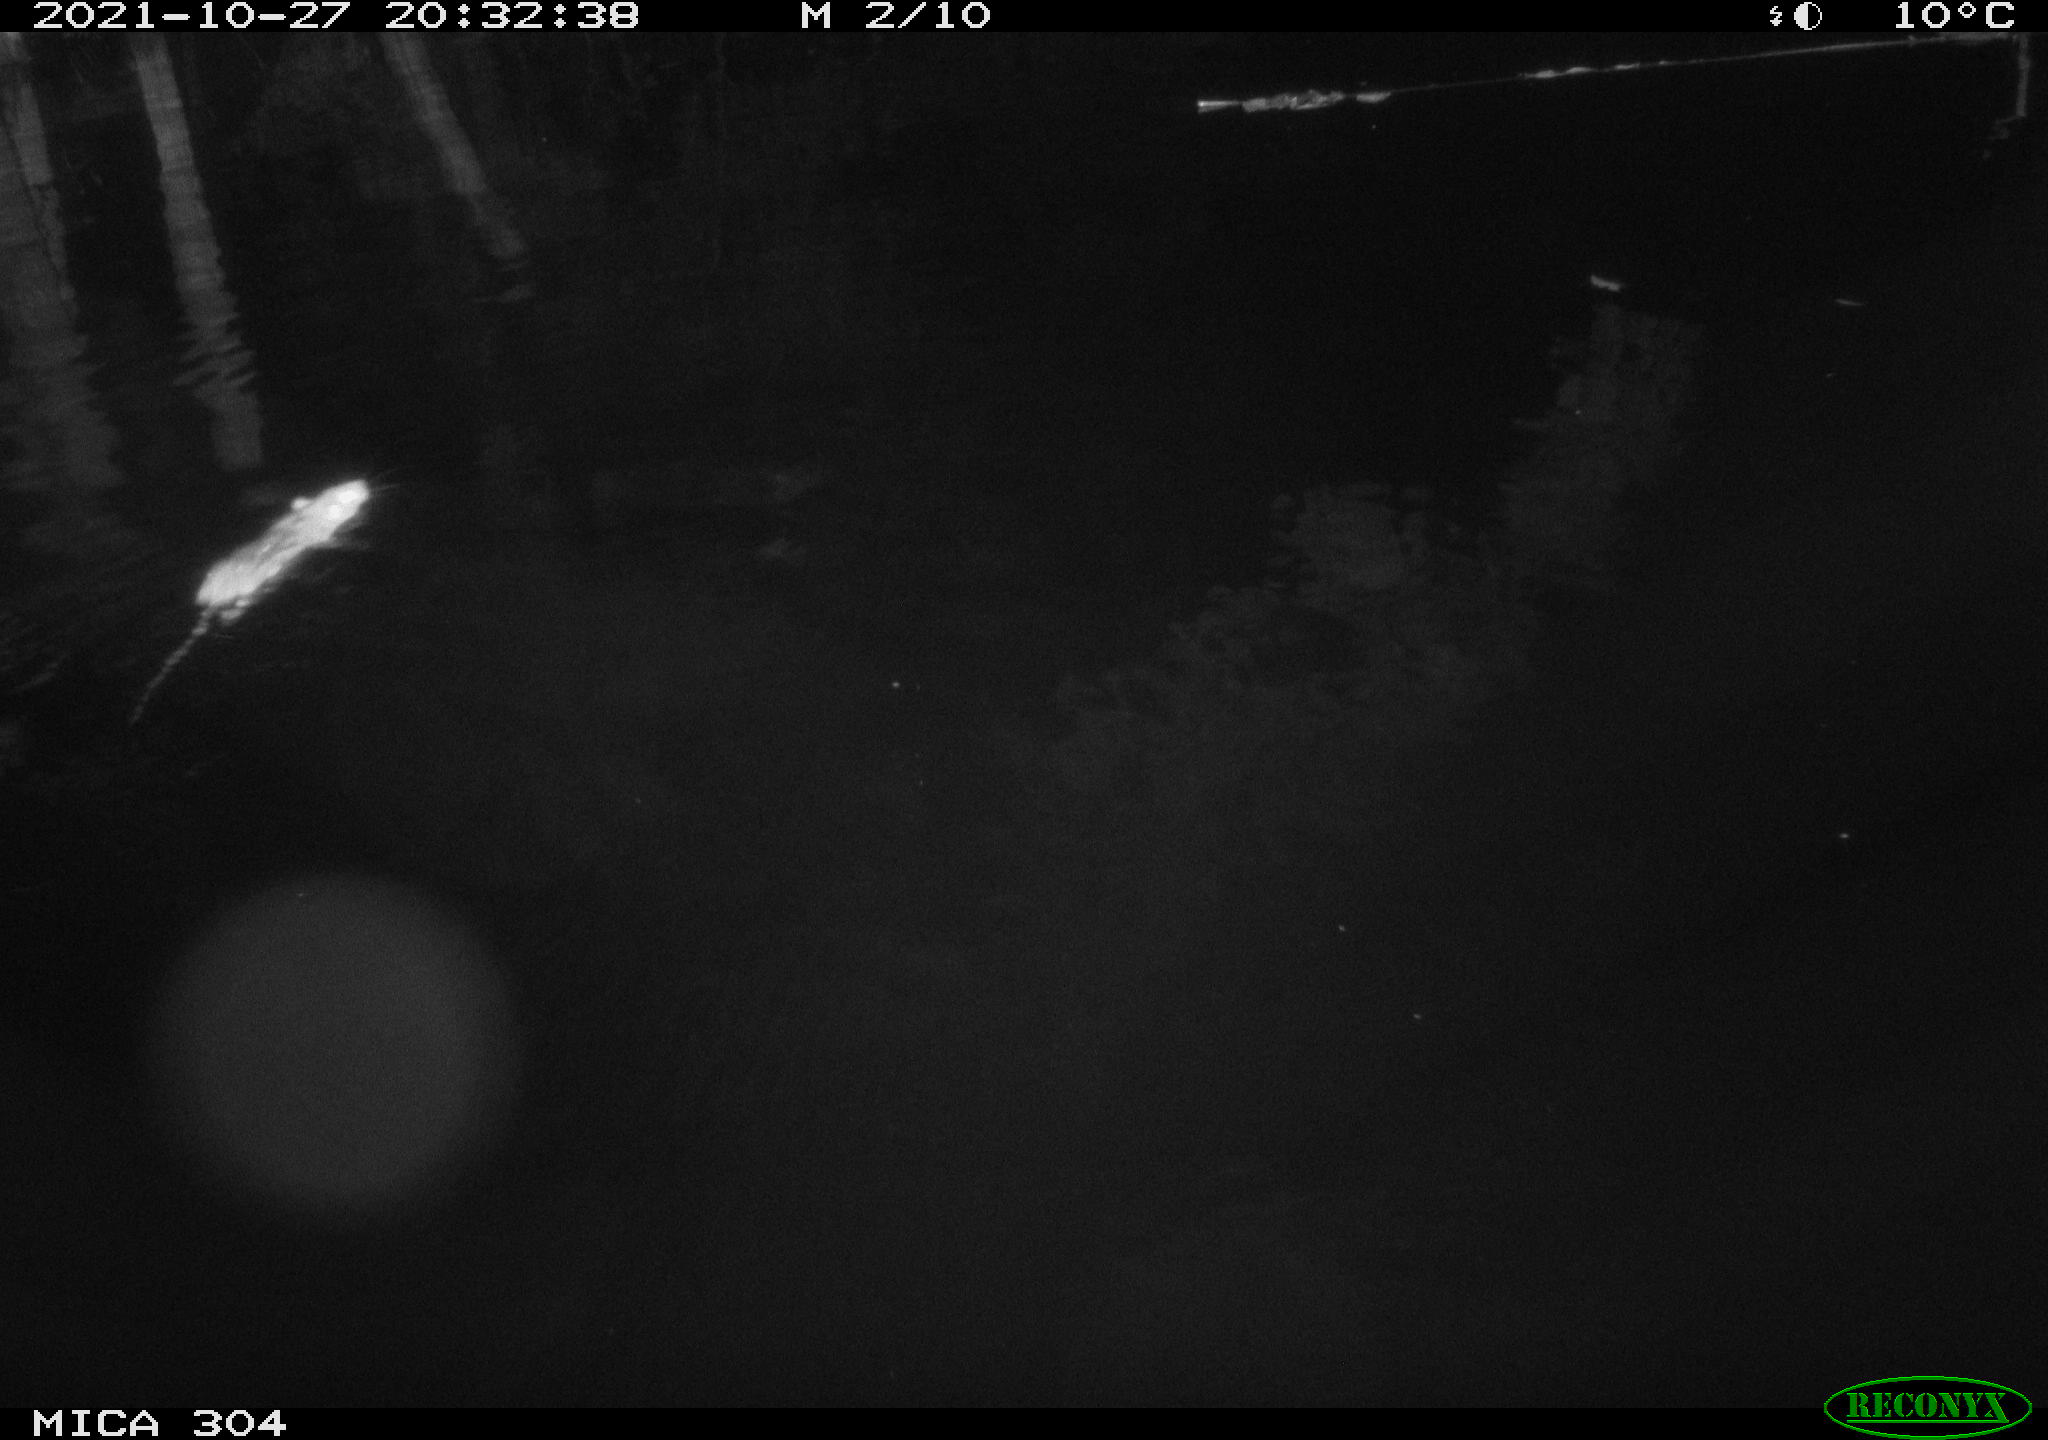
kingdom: Animalia
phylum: Chordata
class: Mammalia
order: Rodentia
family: Muridae
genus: Rattus
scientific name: Rattus norvegicus
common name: Brown rat
